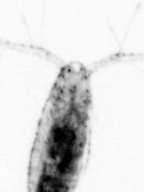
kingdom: Animalia
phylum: Arthropoda
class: Copepoda
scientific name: Copepoda
